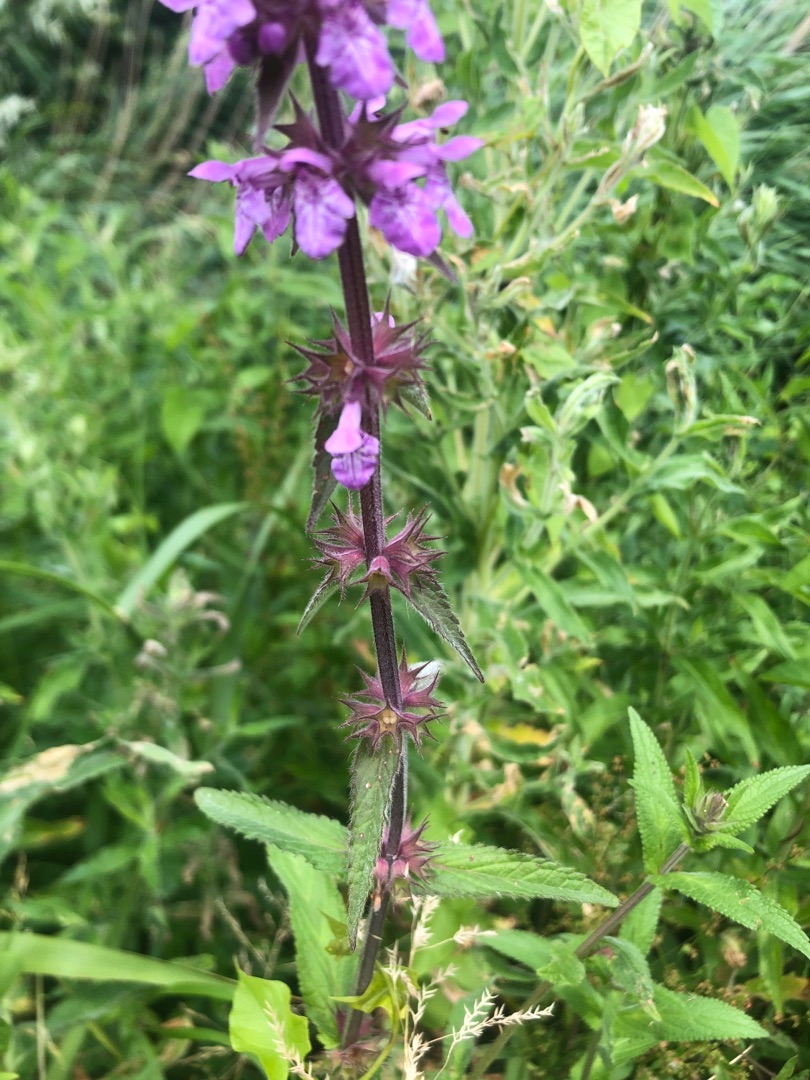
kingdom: Plantae
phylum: Tracheophyta
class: Magnoliopsida
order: Lamiales
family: Lamiaceae
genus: Stachys
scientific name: Stachys palustris
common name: Kær-galtetand
